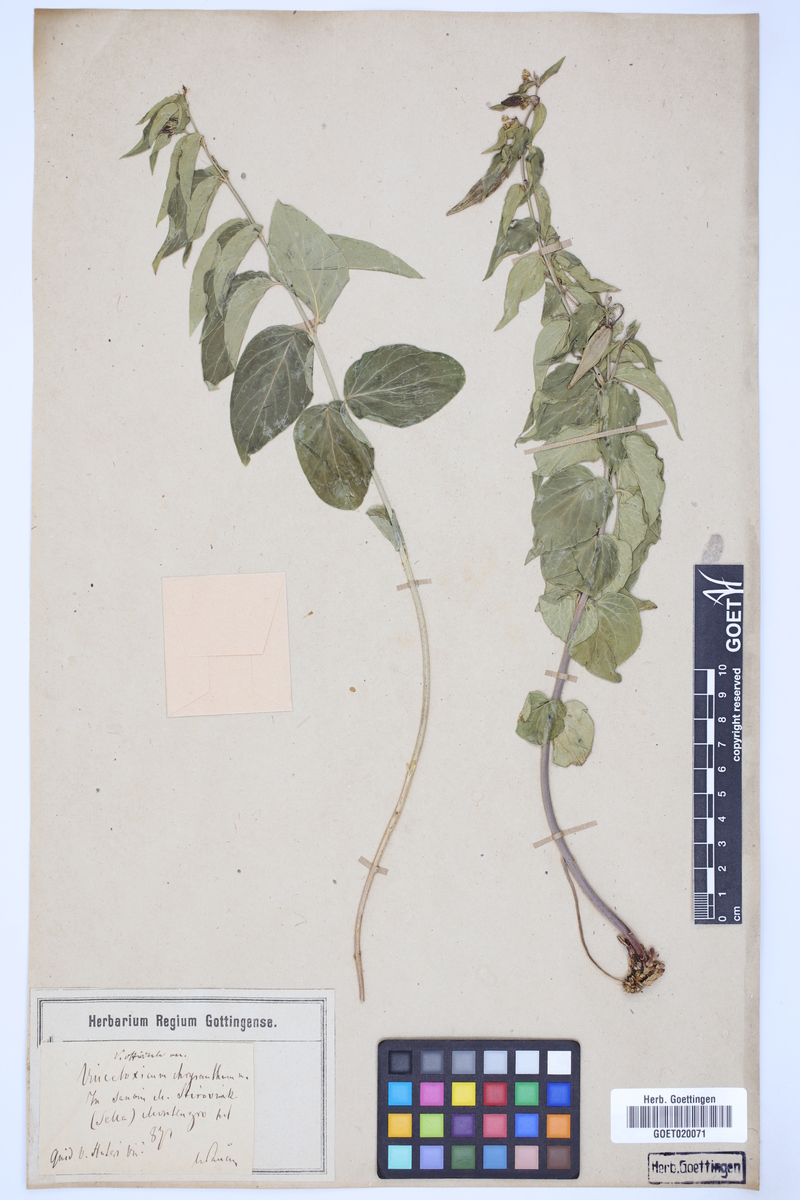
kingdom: Plantae
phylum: Tracheophyta
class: Magnoliopsida
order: Gentianales
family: Apocynaceae
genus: Vincetoxicum
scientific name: Vincetoxicum hirundinaria
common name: White swallowwort
